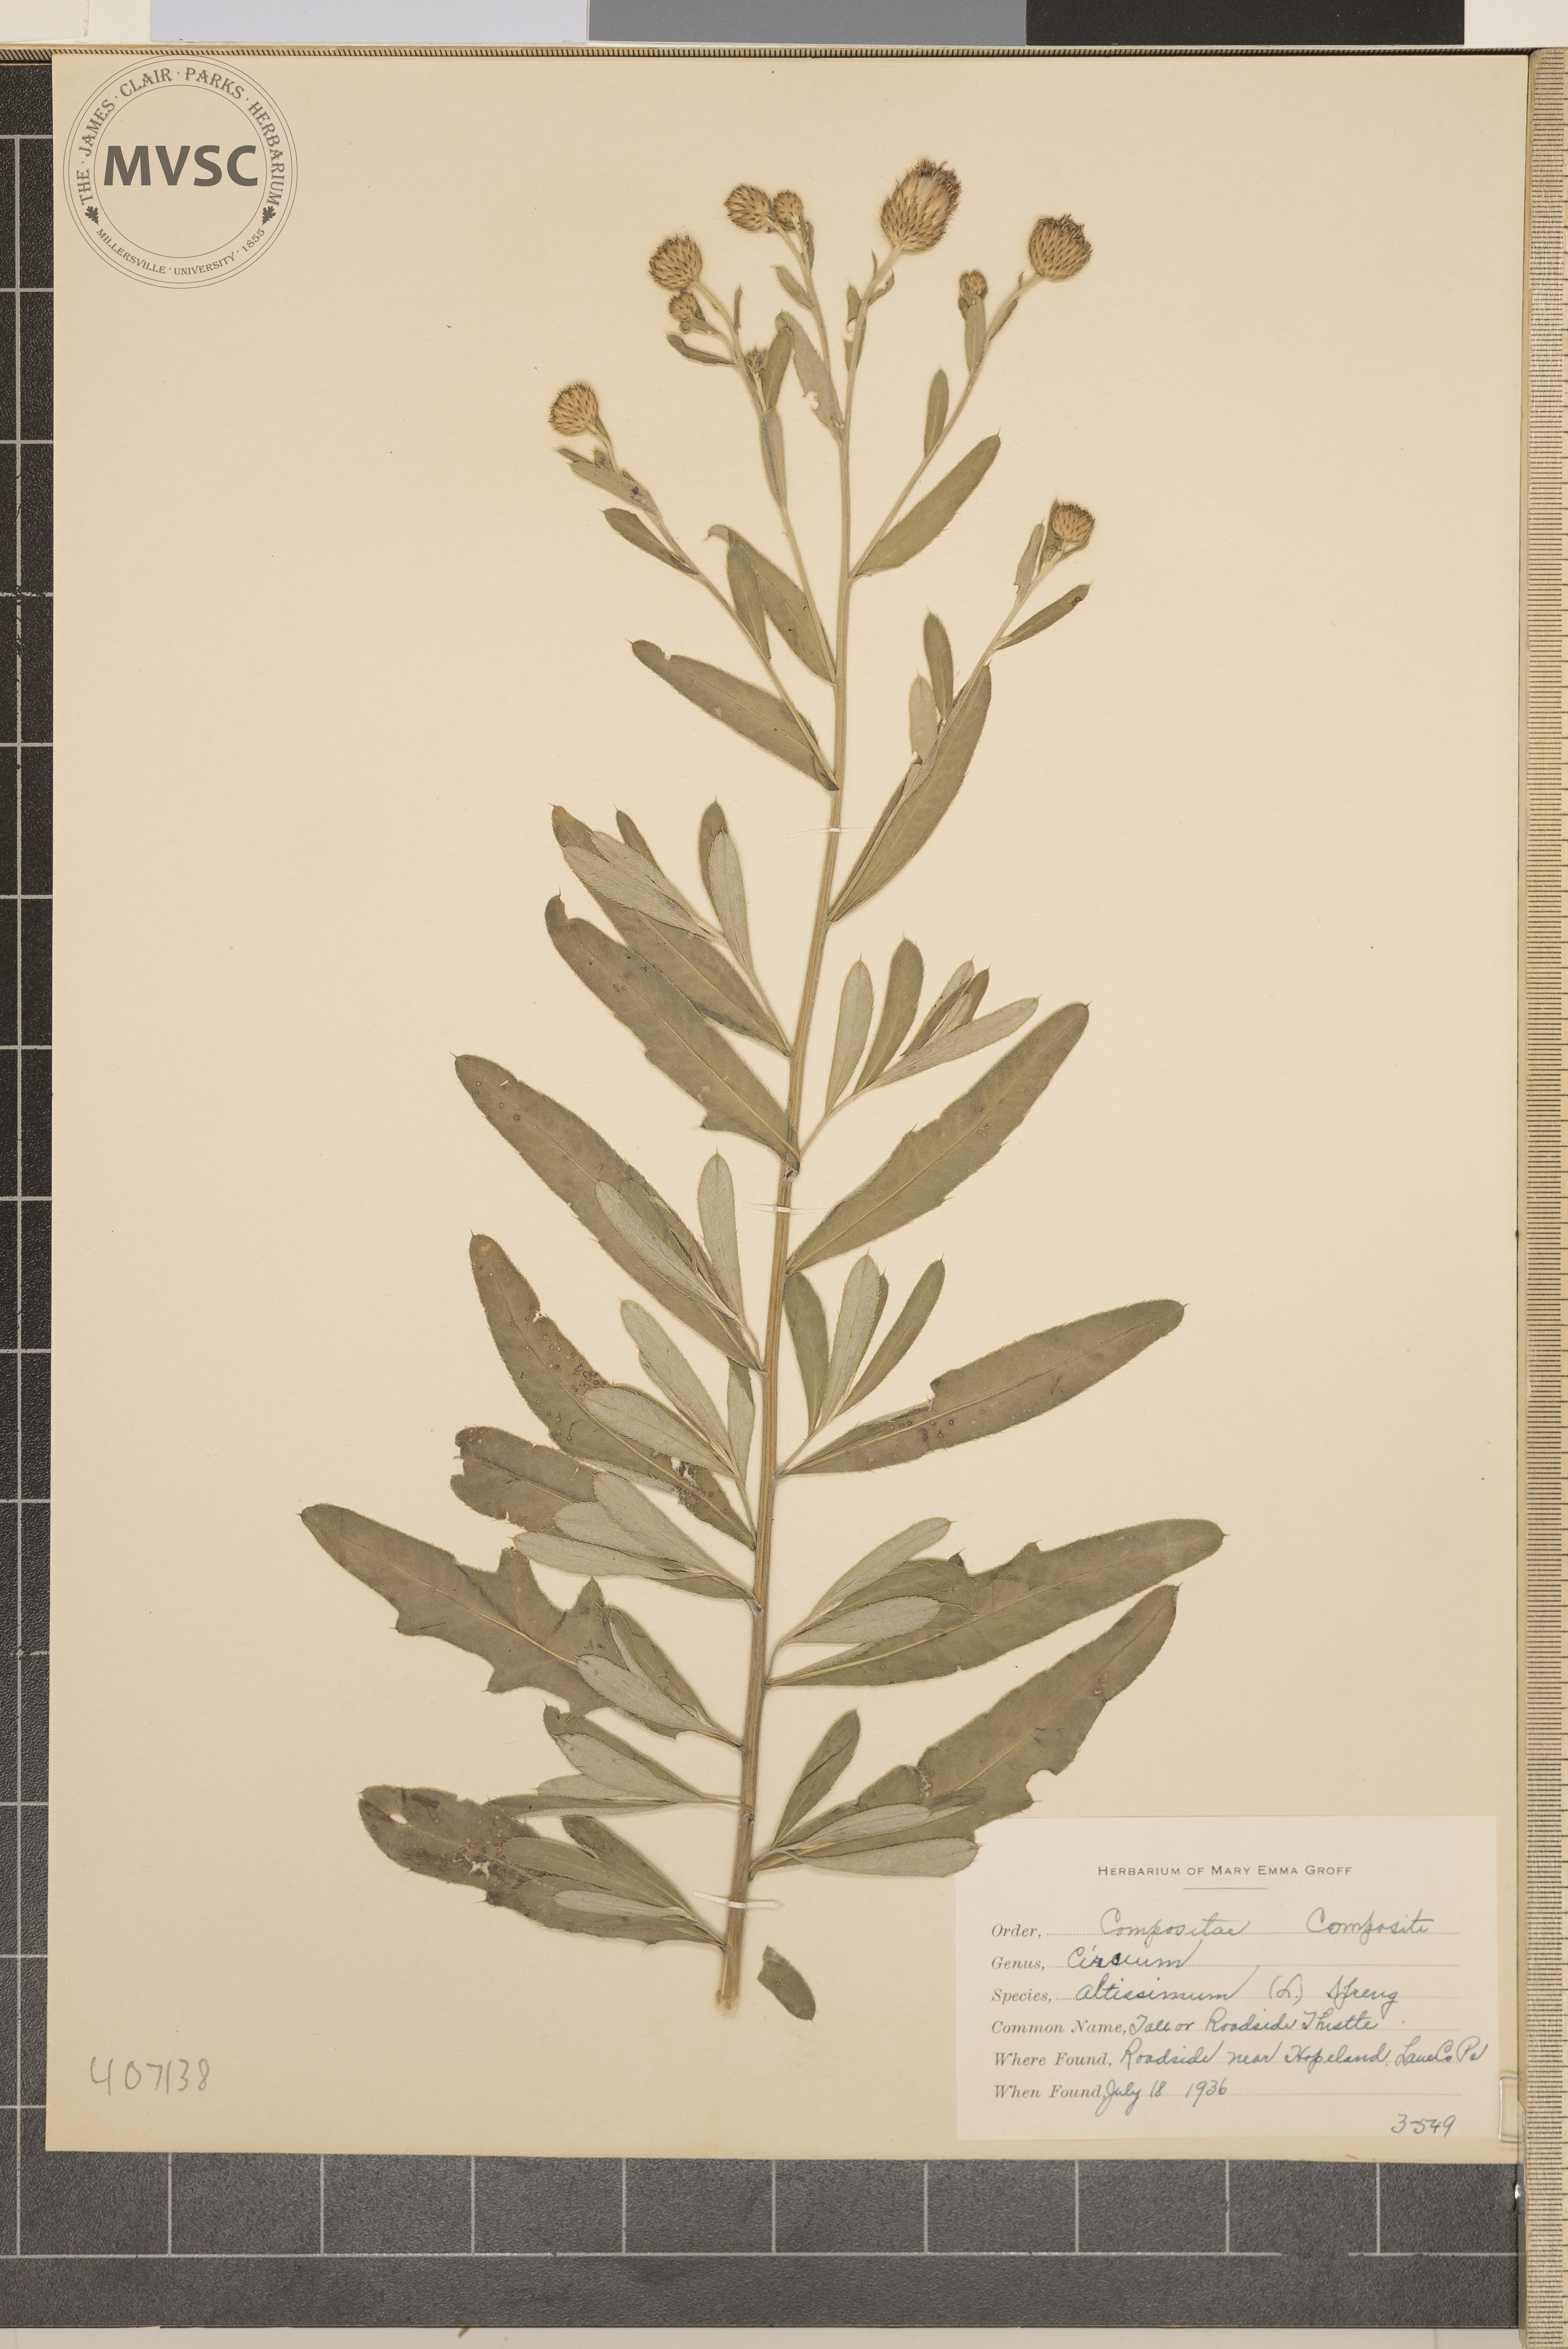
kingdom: Plantae
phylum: Tracheophyta
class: Magnoliopsida
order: Asterales
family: Asteraceae
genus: Cirsium
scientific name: Cirsium altissimum
